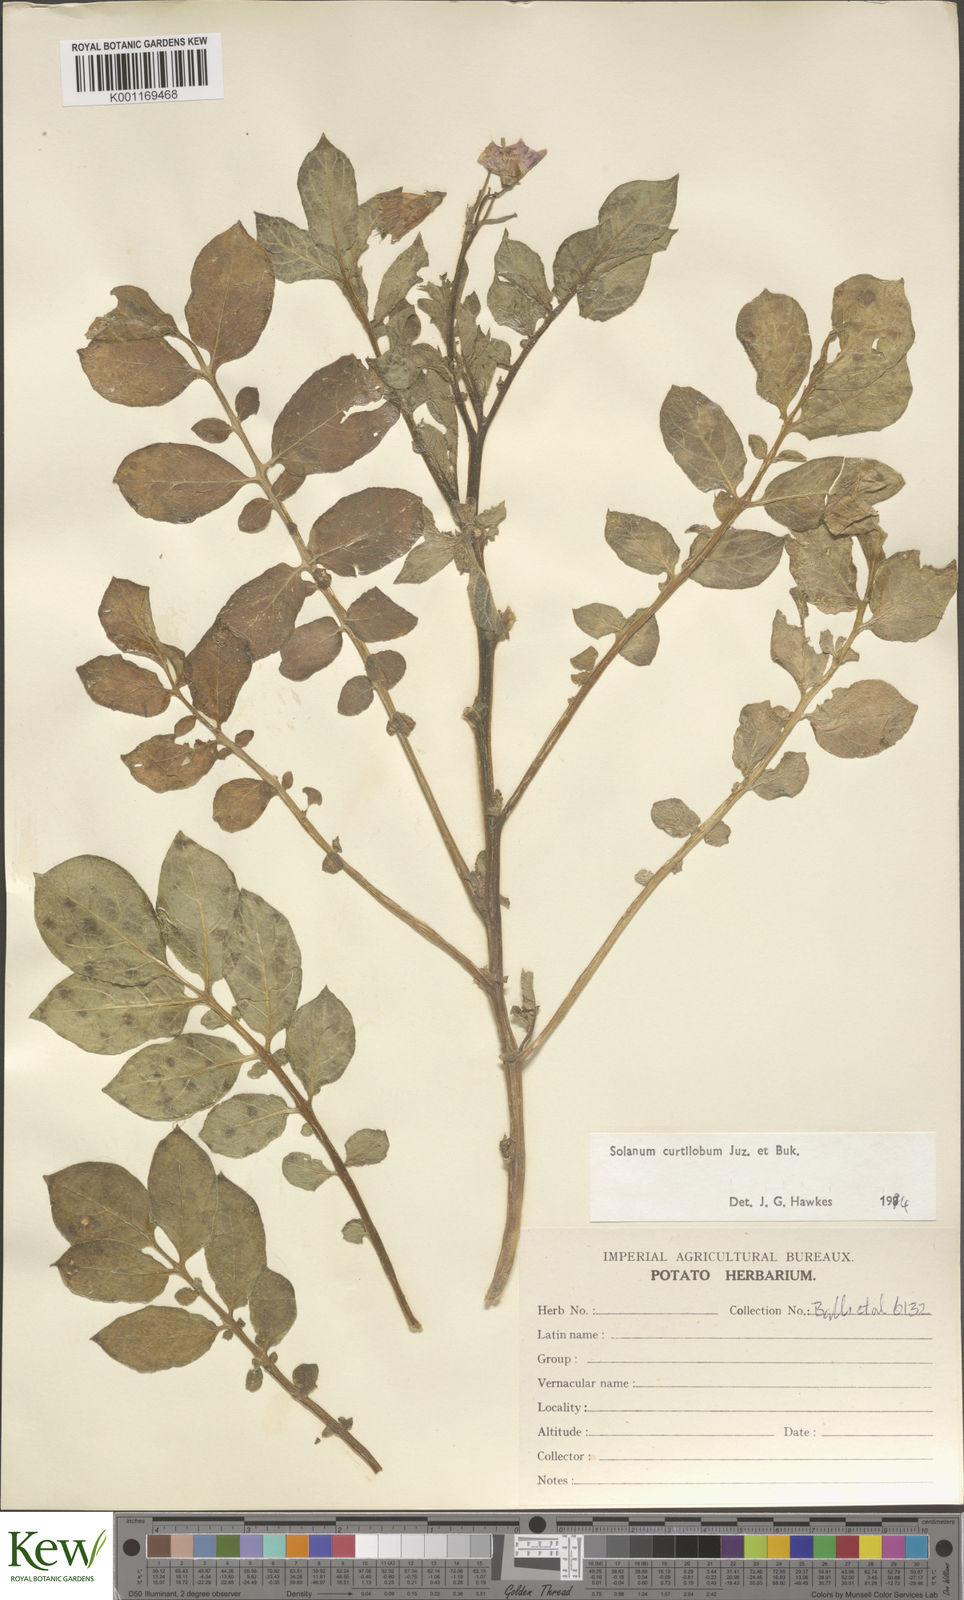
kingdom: Plantae
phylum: Tracheophyta
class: Magnoliopsida
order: Solanales
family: Solanaceae
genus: Solanum
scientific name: Solanum curtilobum
